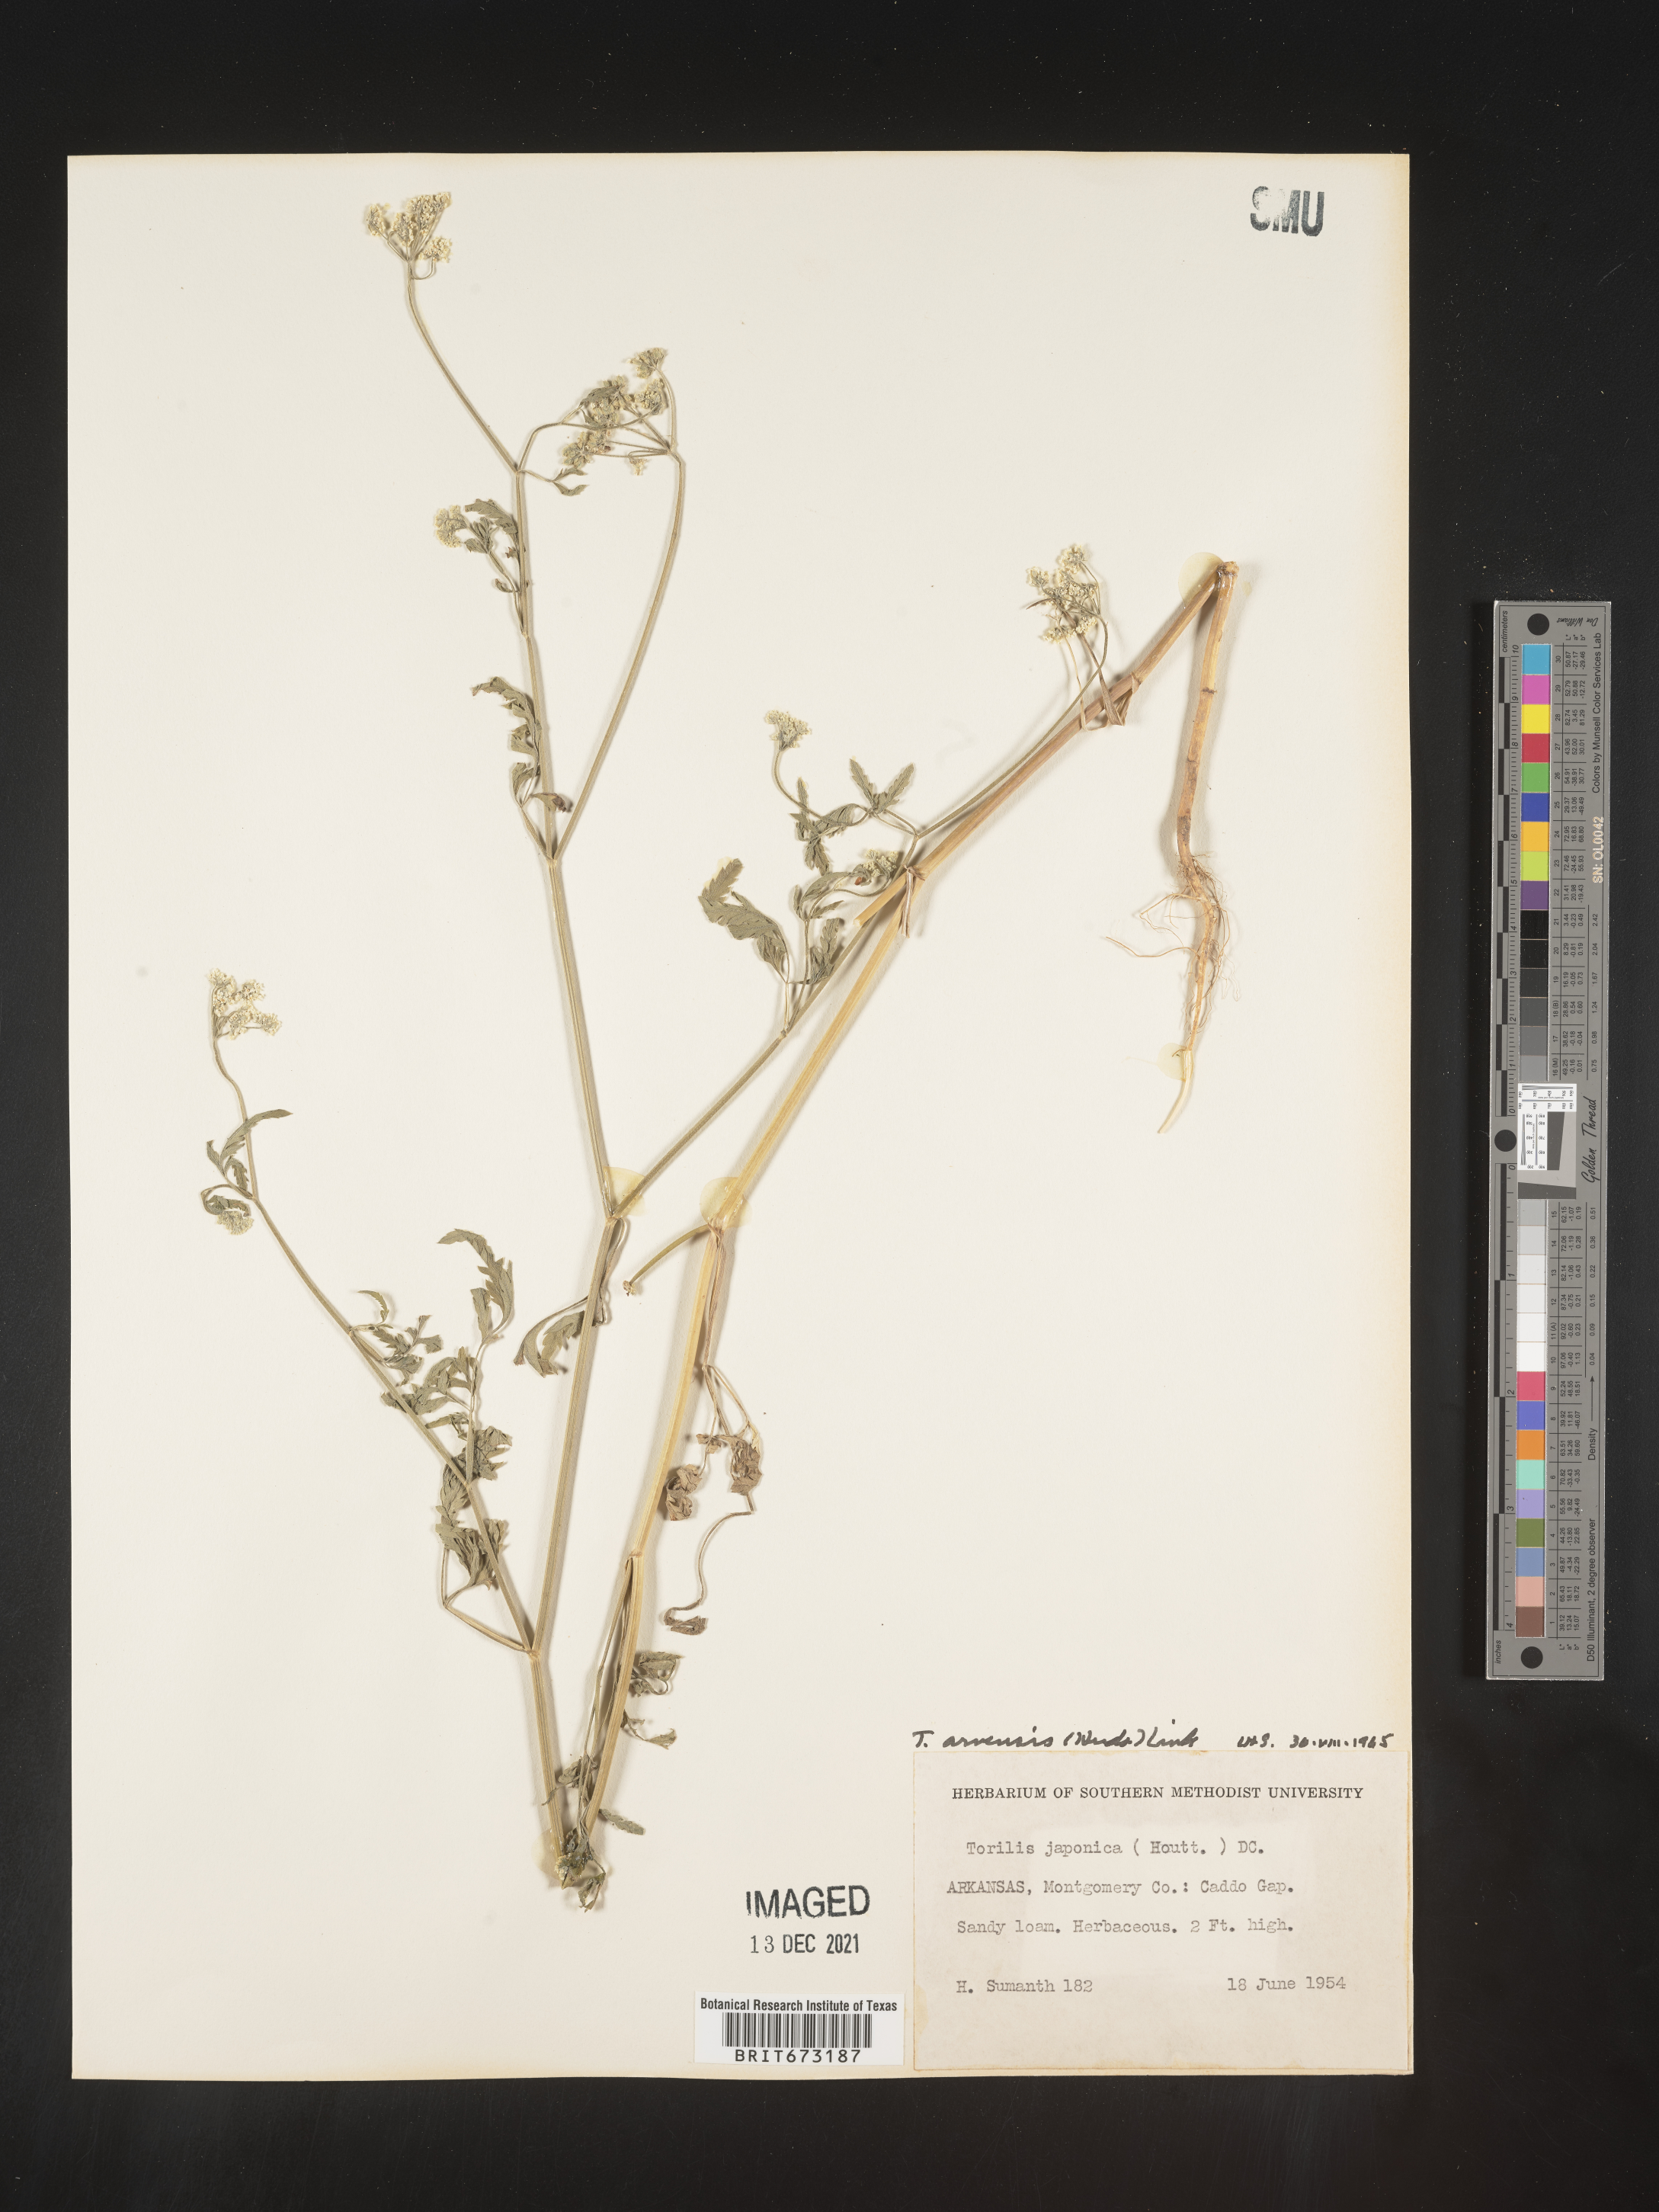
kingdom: Plantae
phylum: Tracheophyta
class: Magnoliopsida
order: Apiales
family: Apiaceae
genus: Torilis
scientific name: Torilis arvensis
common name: Spreading hedge-parsley
